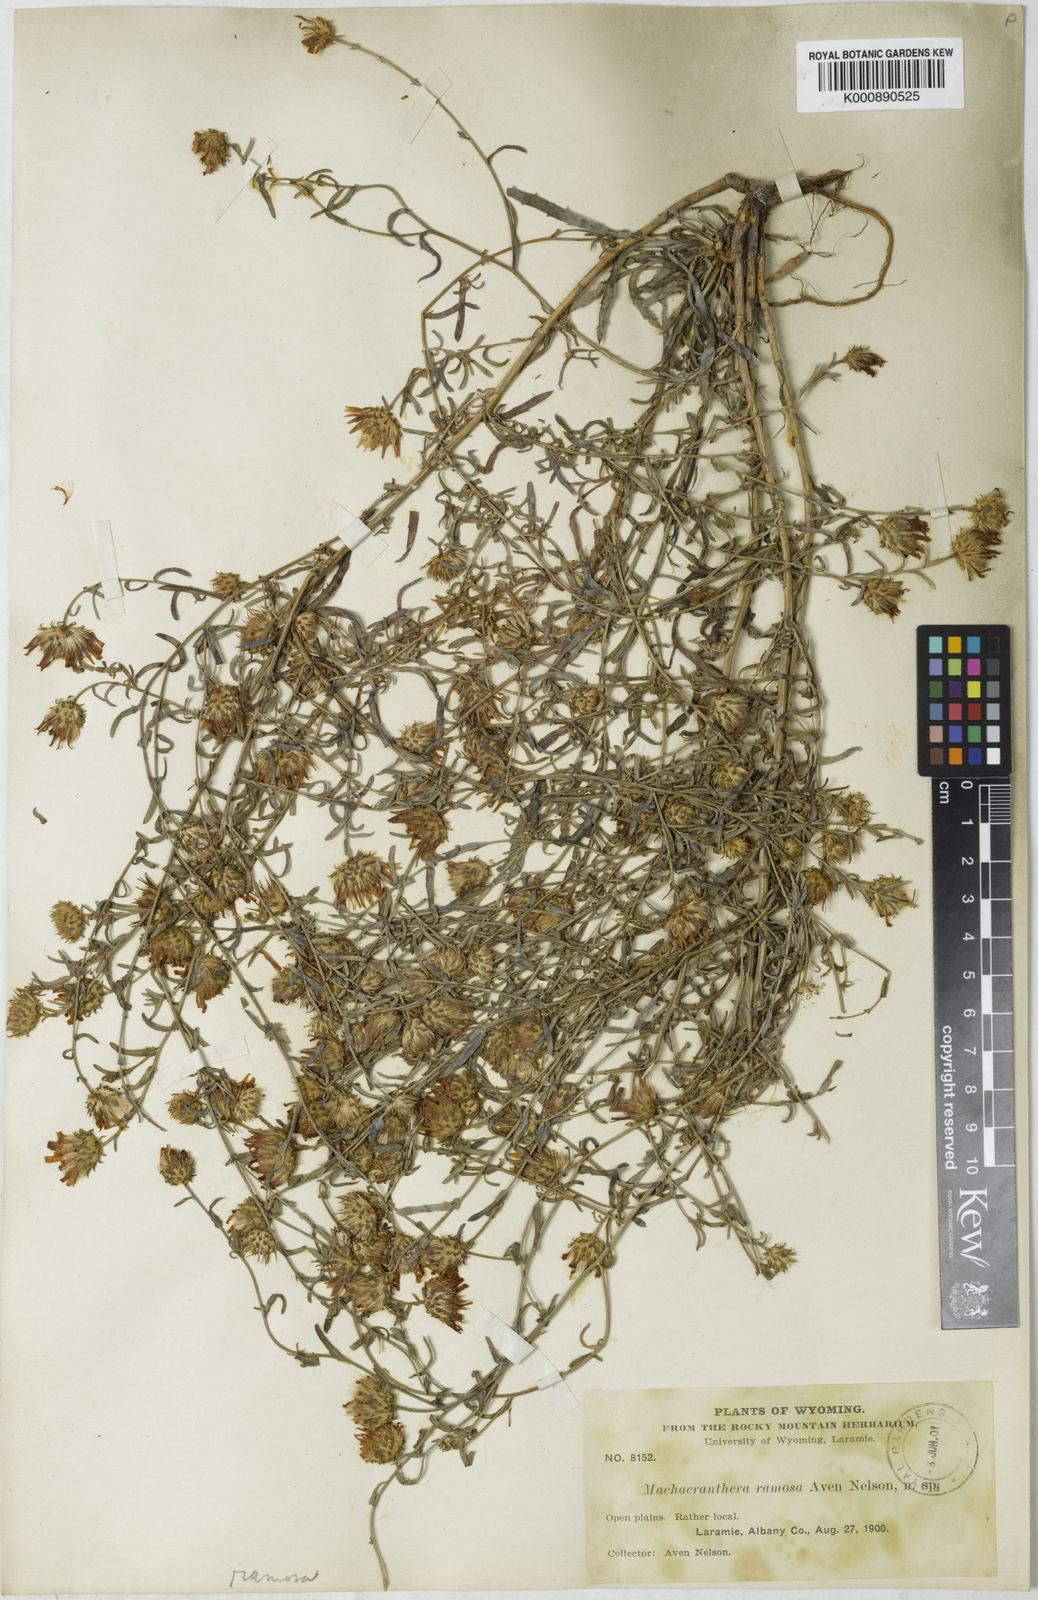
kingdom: Plantae
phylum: Tracheophyta
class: Magnoliopsida
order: Asterales
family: Asteraceae
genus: Aster
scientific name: Aster
